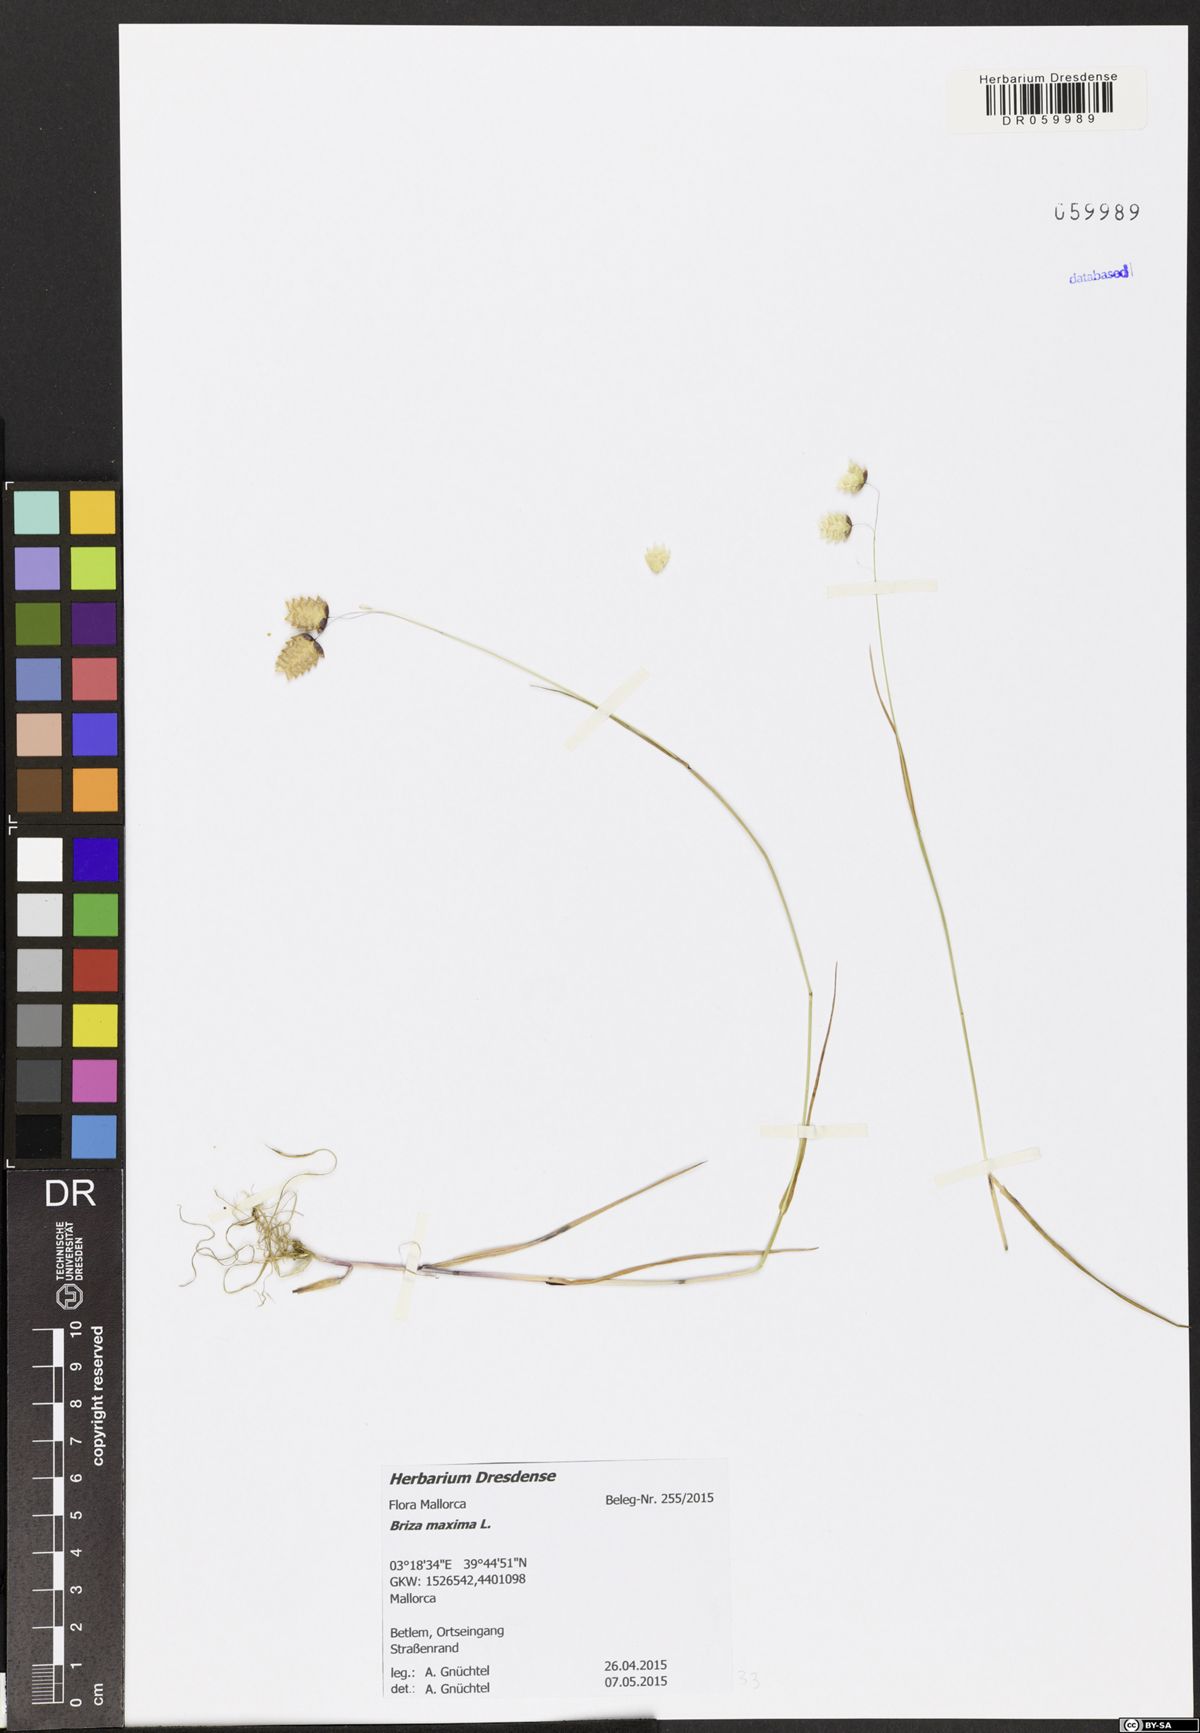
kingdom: Plantae
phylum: Tracheophyta
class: Liliopsida
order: Poales
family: Poaceae
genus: Briza
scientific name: Briza maxima
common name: Big quakinggrass
